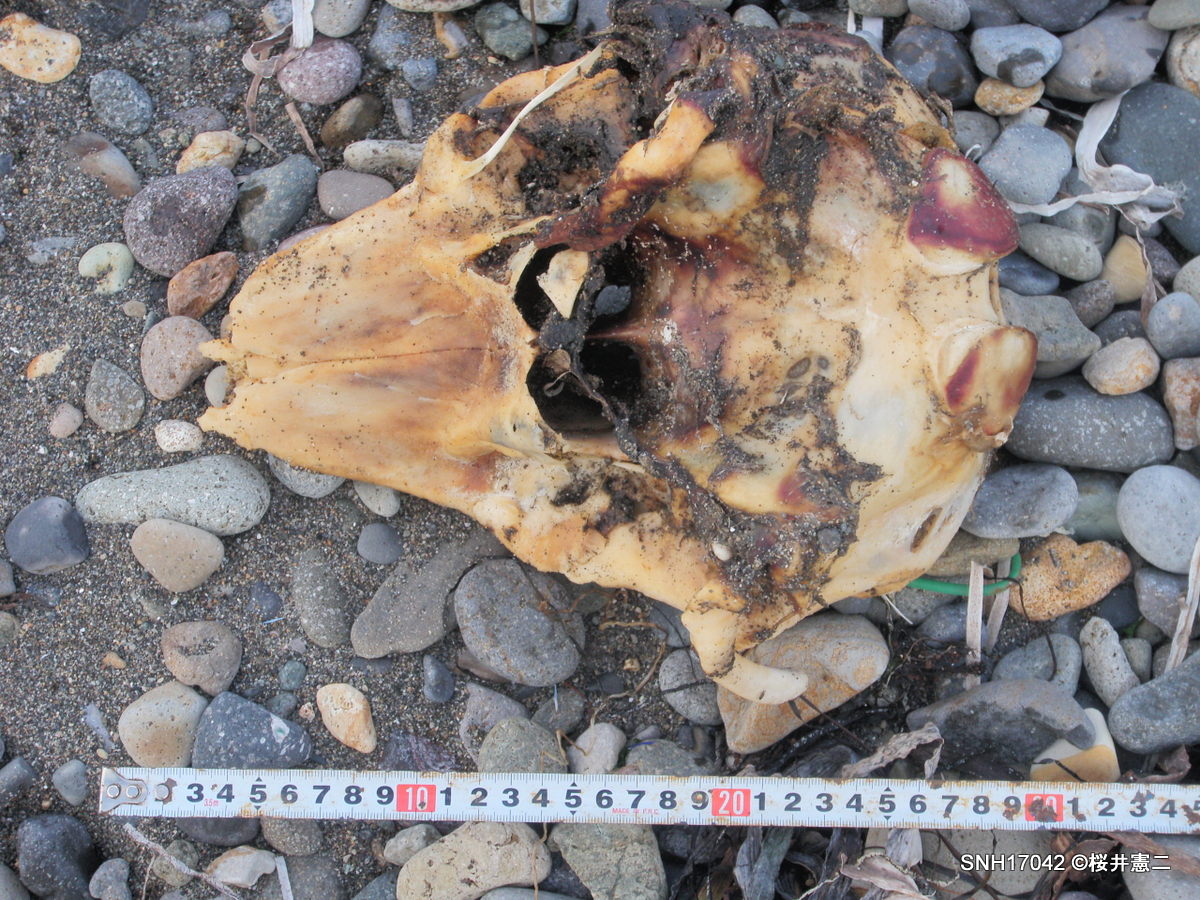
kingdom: Animalia
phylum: Chordata
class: Mammalia
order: Cetacea
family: Phocoenidae
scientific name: Phocoenidae
